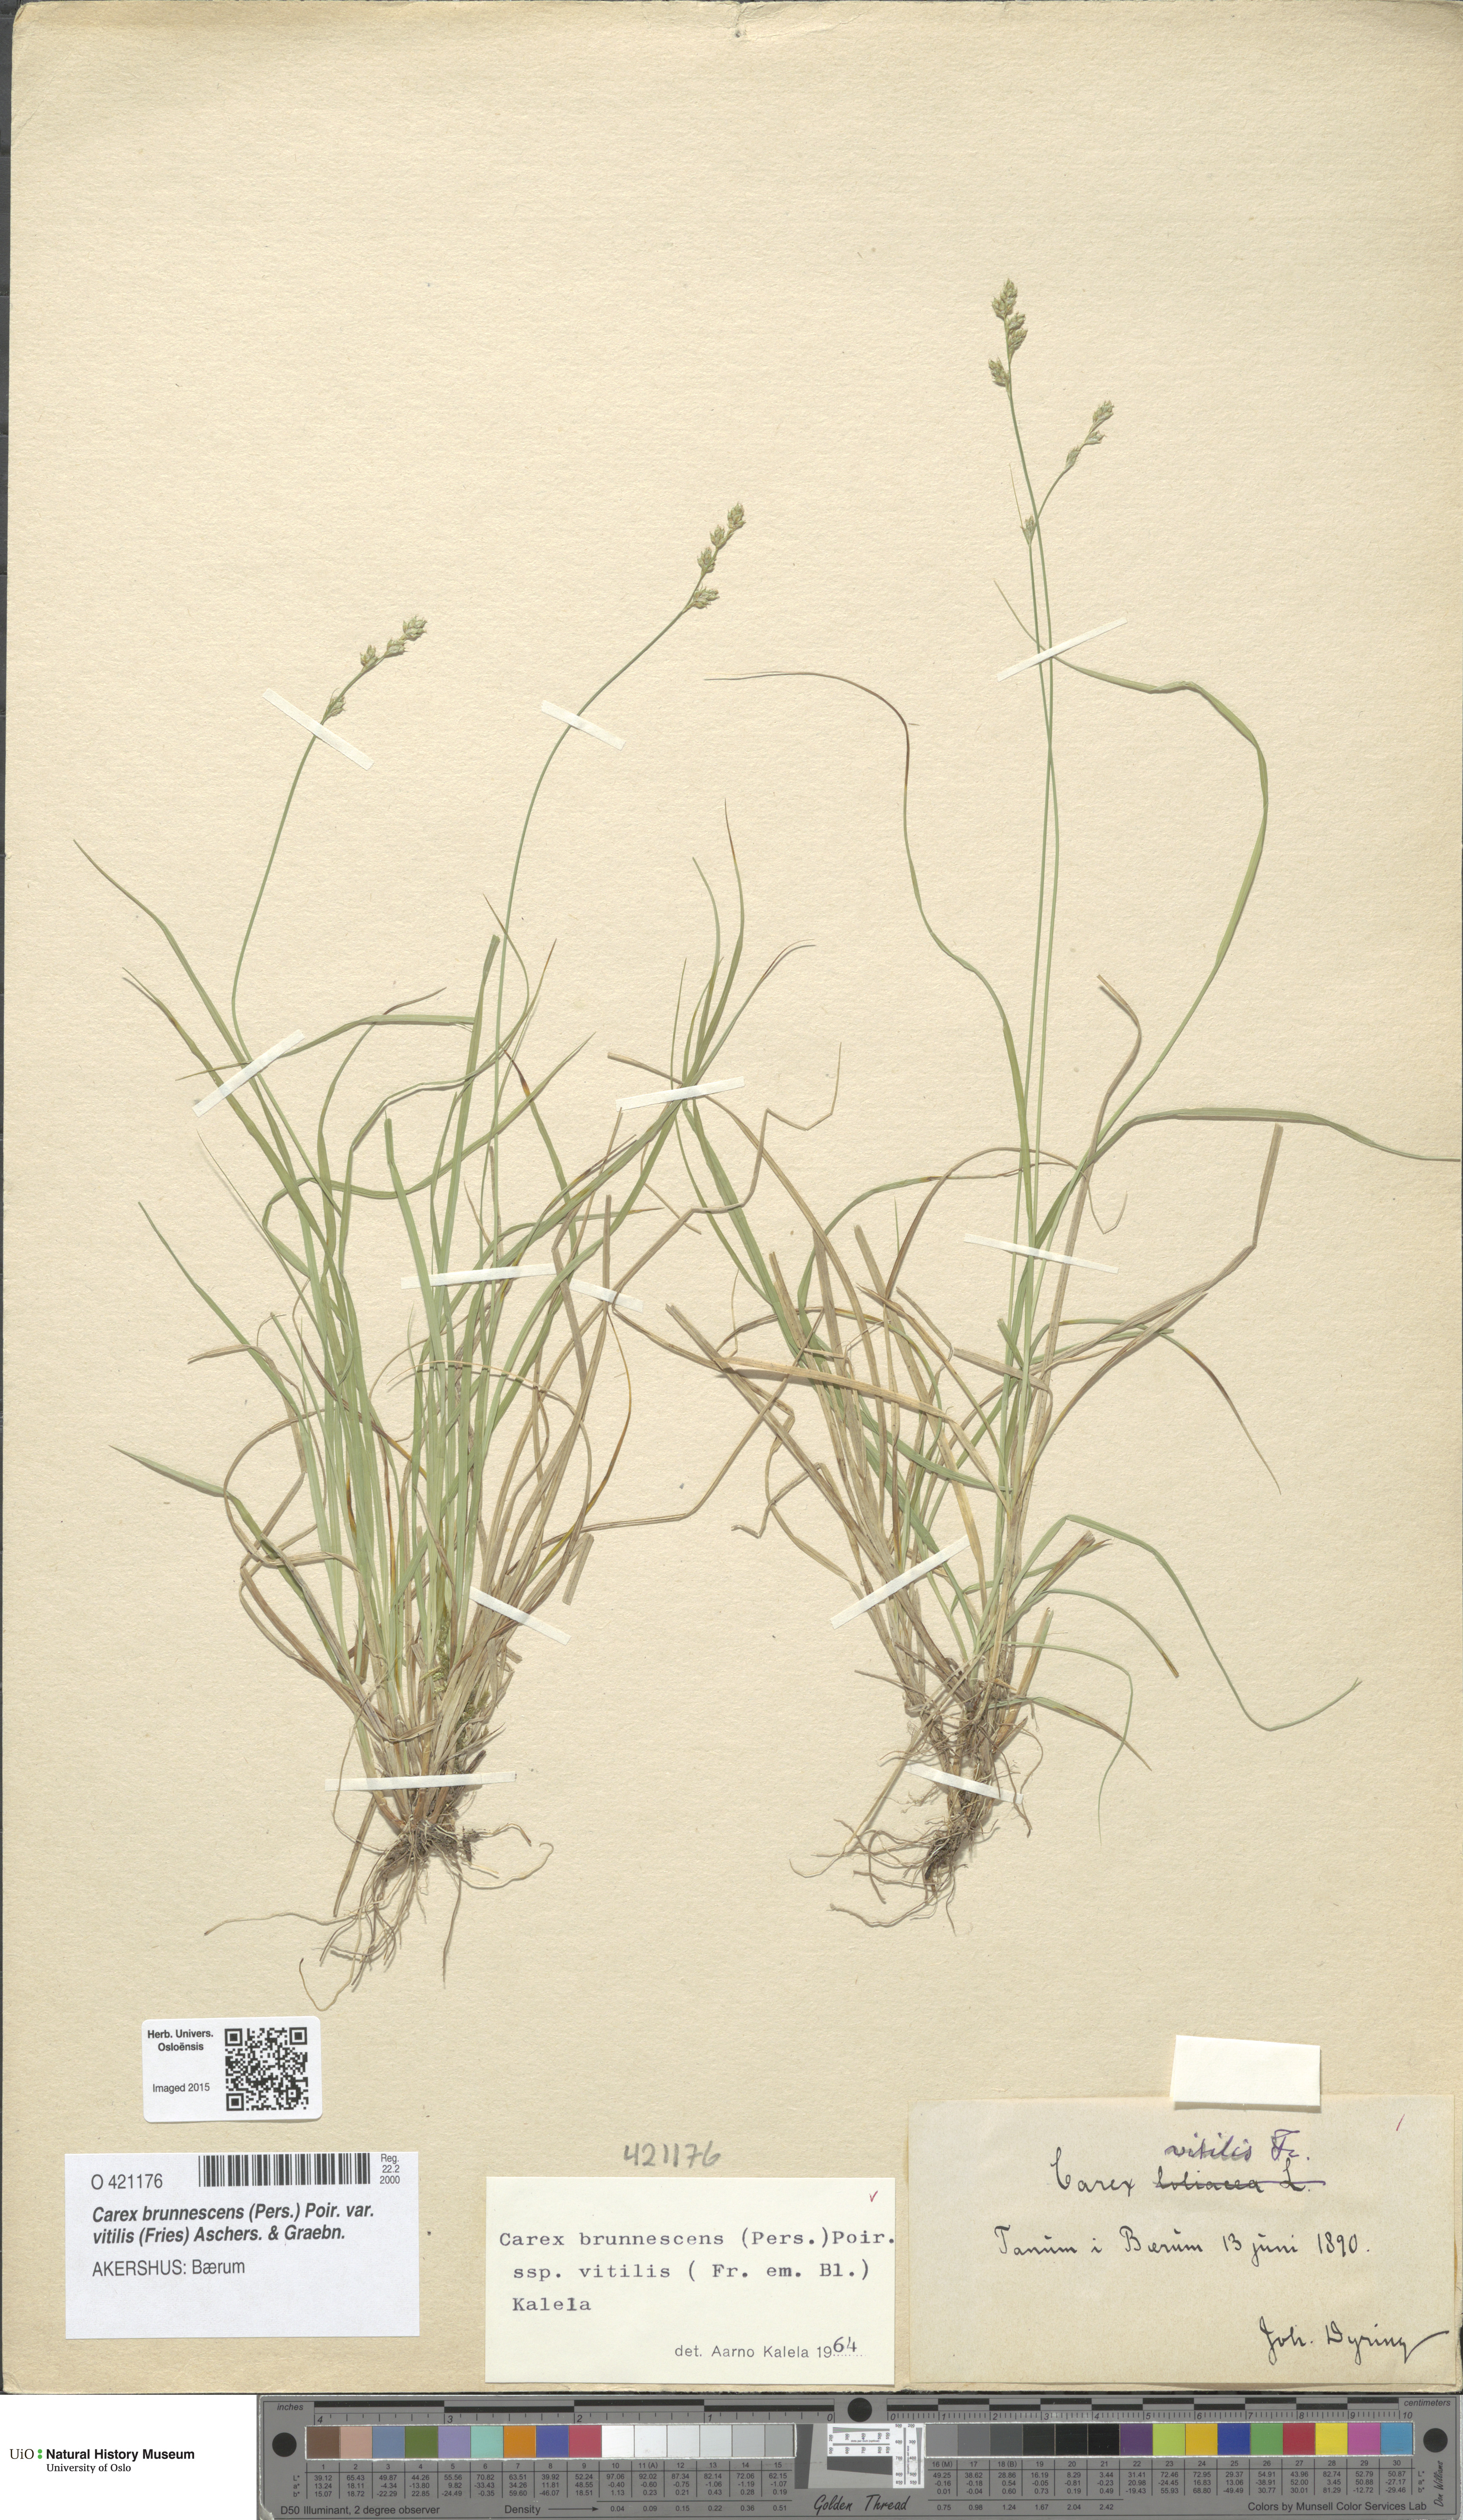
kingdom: Plantae
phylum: Tracheophyta
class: Liliopsida
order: Poales
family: Cyperaceae
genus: Carex
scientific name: Carex brunnescens
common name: Brown sedge
